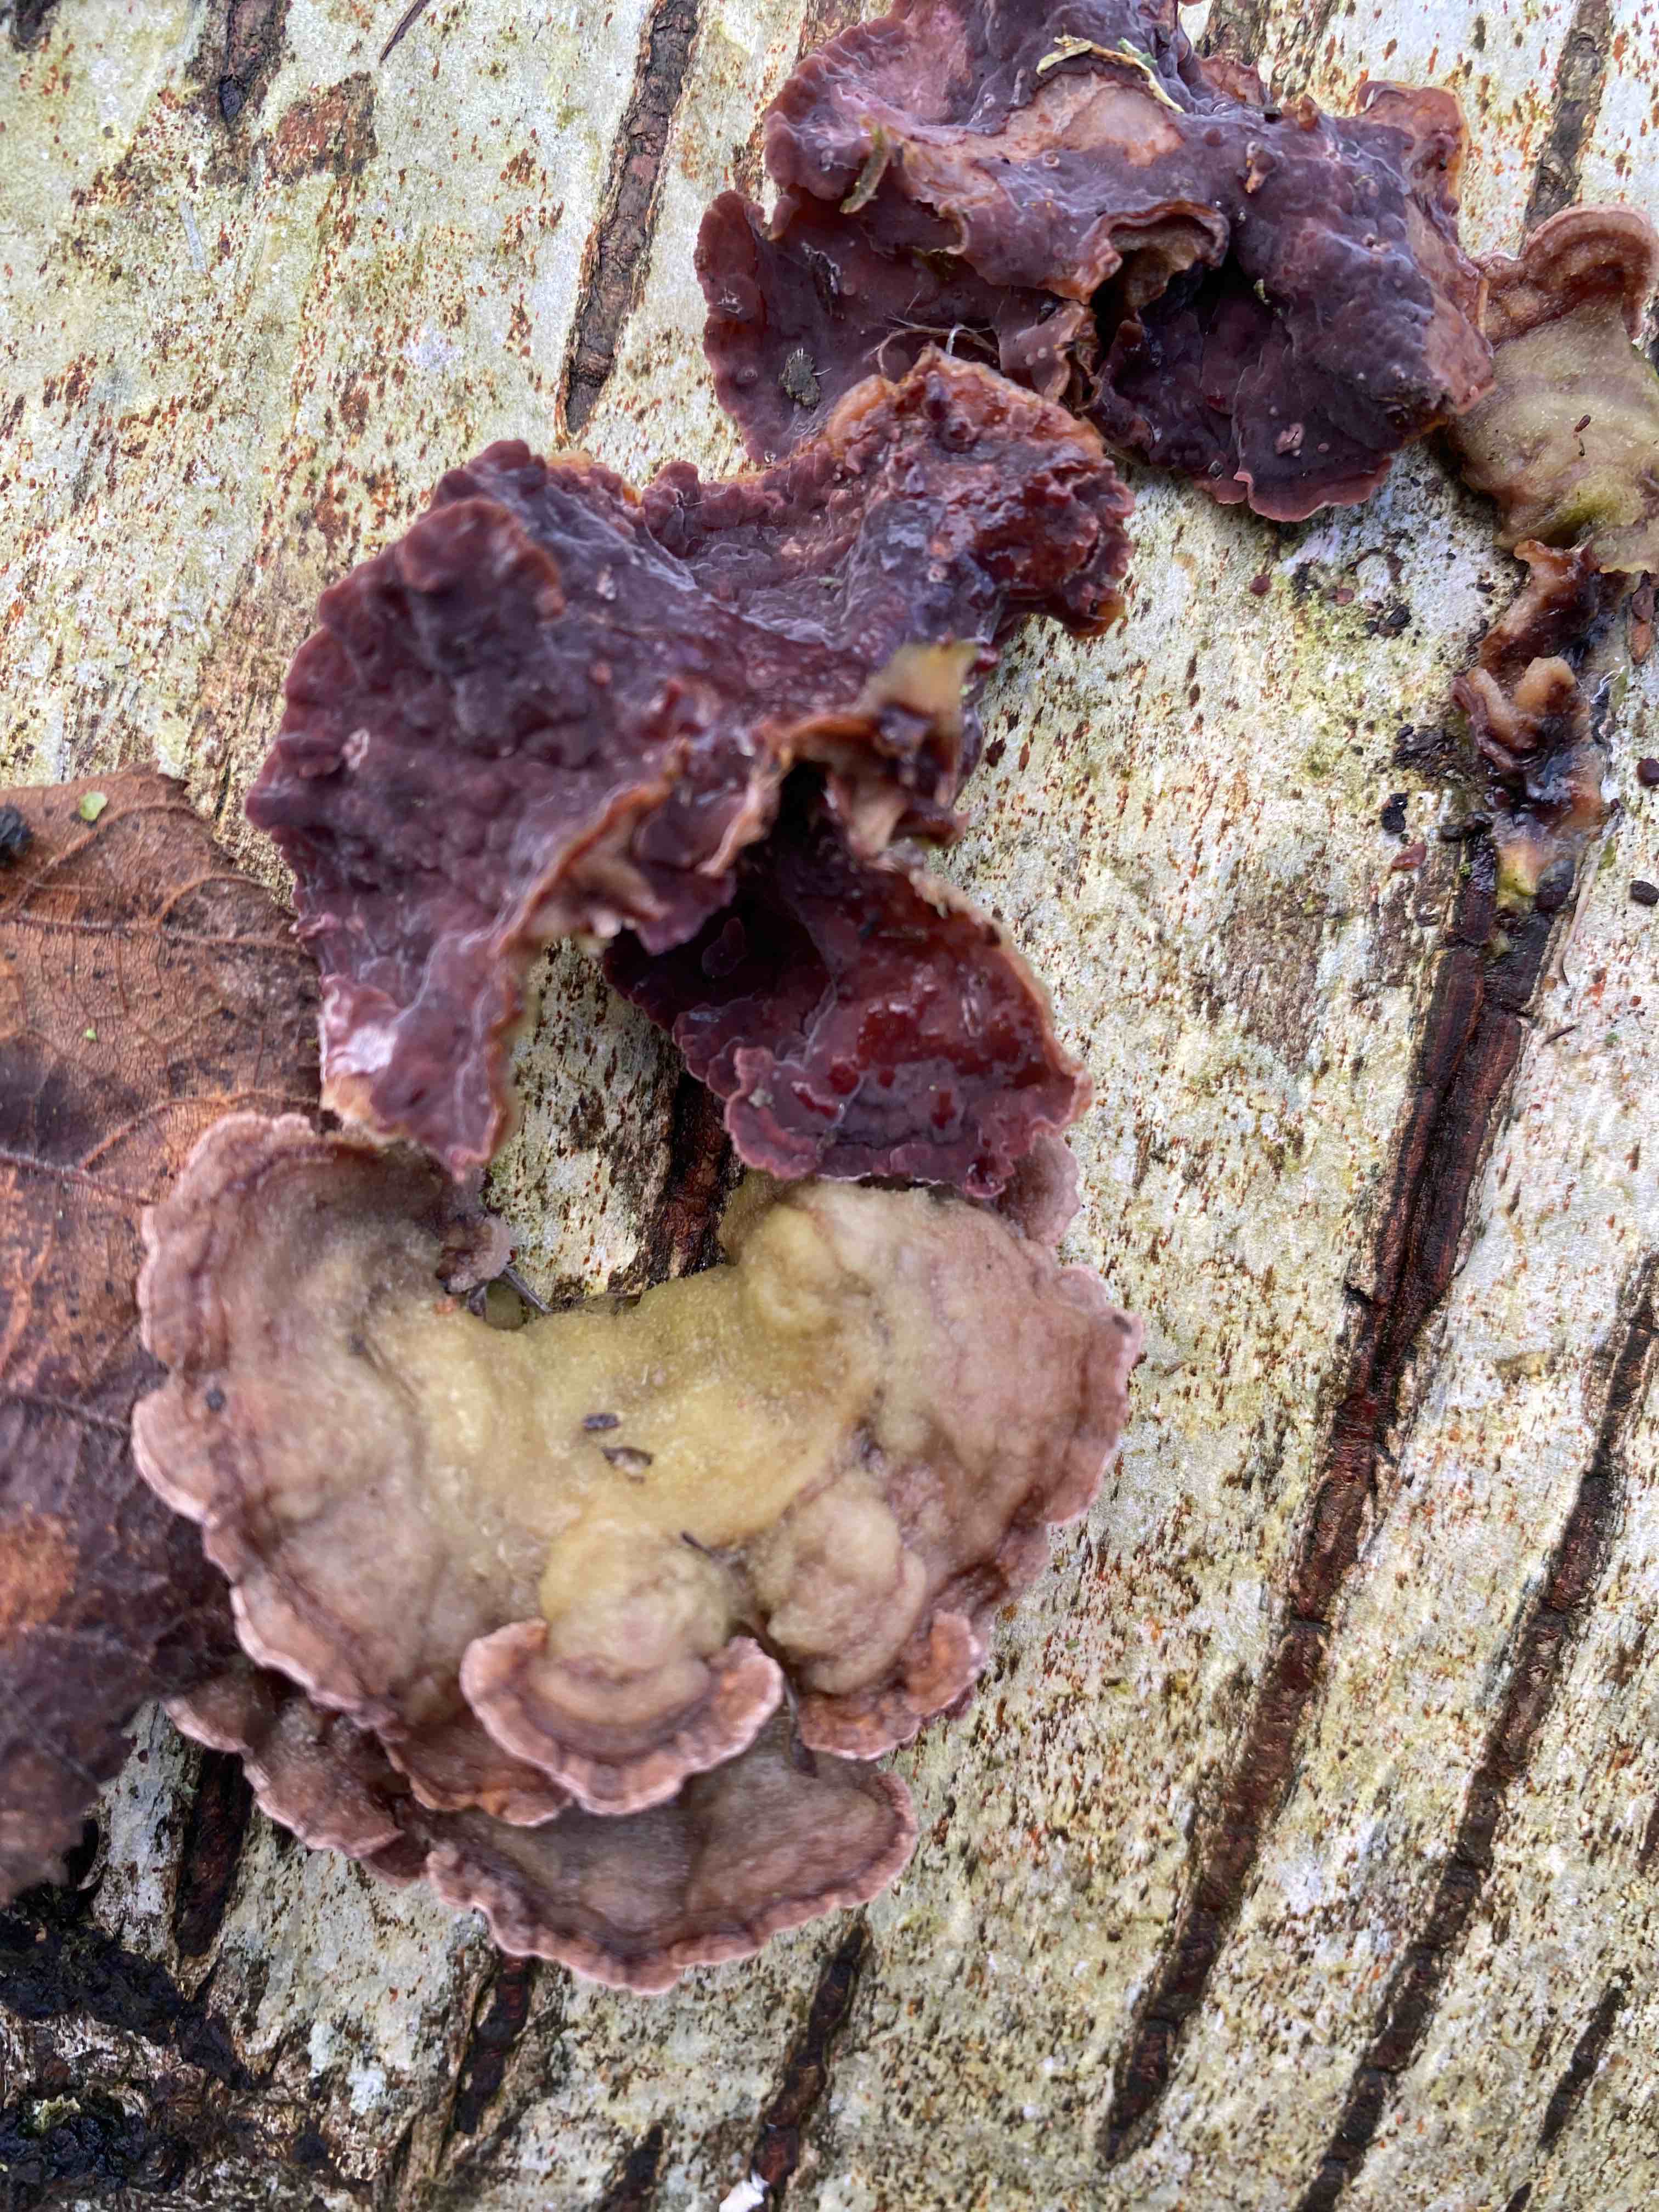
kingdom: Fungi
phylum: Basidiomycota
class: Agaricomycetes
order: Agaricales
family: Cyphellaceae
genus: Chondrostereum
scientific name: Chondrostereum purpureum
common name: purpurlædersvamp
